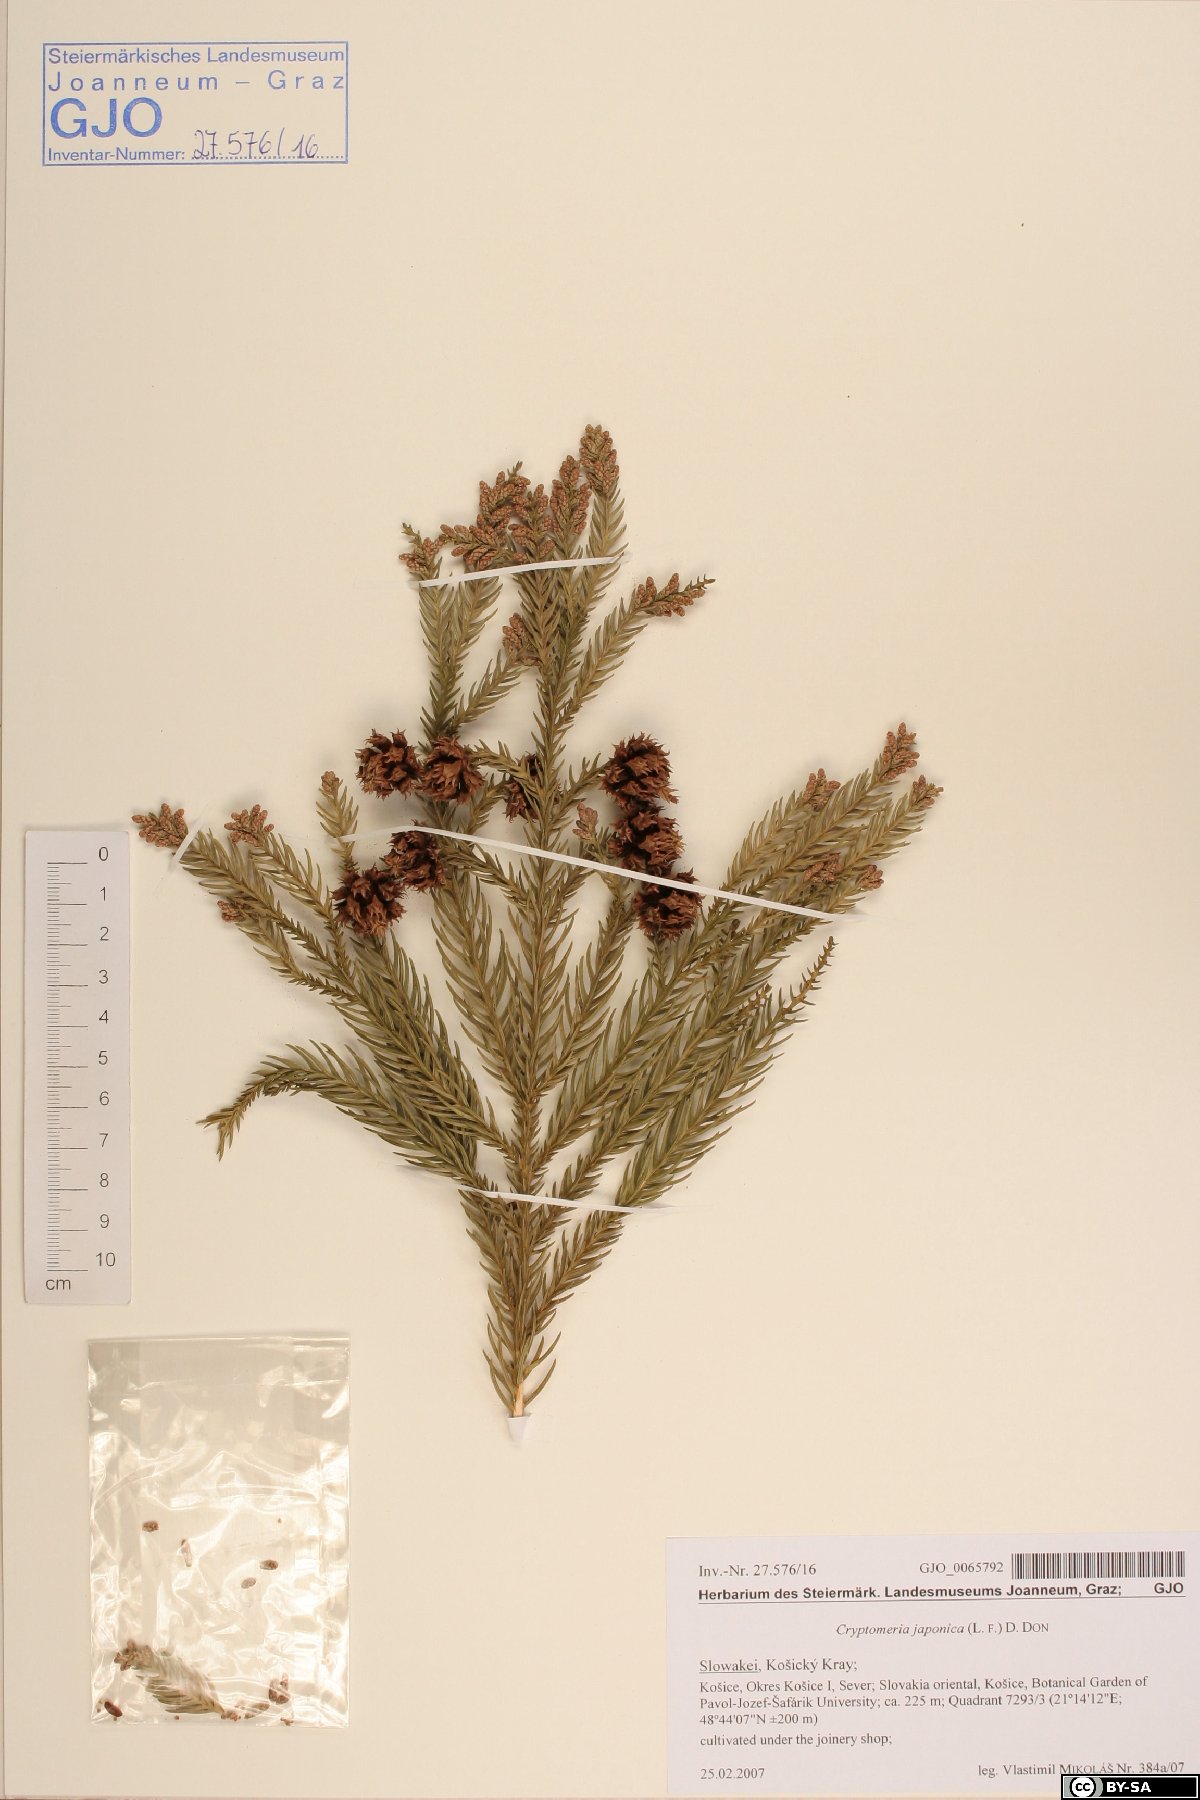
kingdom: Plantae
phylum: Tracheophyta
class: Pinopsida
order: Pinales
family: Cupressaceae
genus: Cryptomeria
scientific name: Cryptomeria japonica
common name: Japanese cedar
